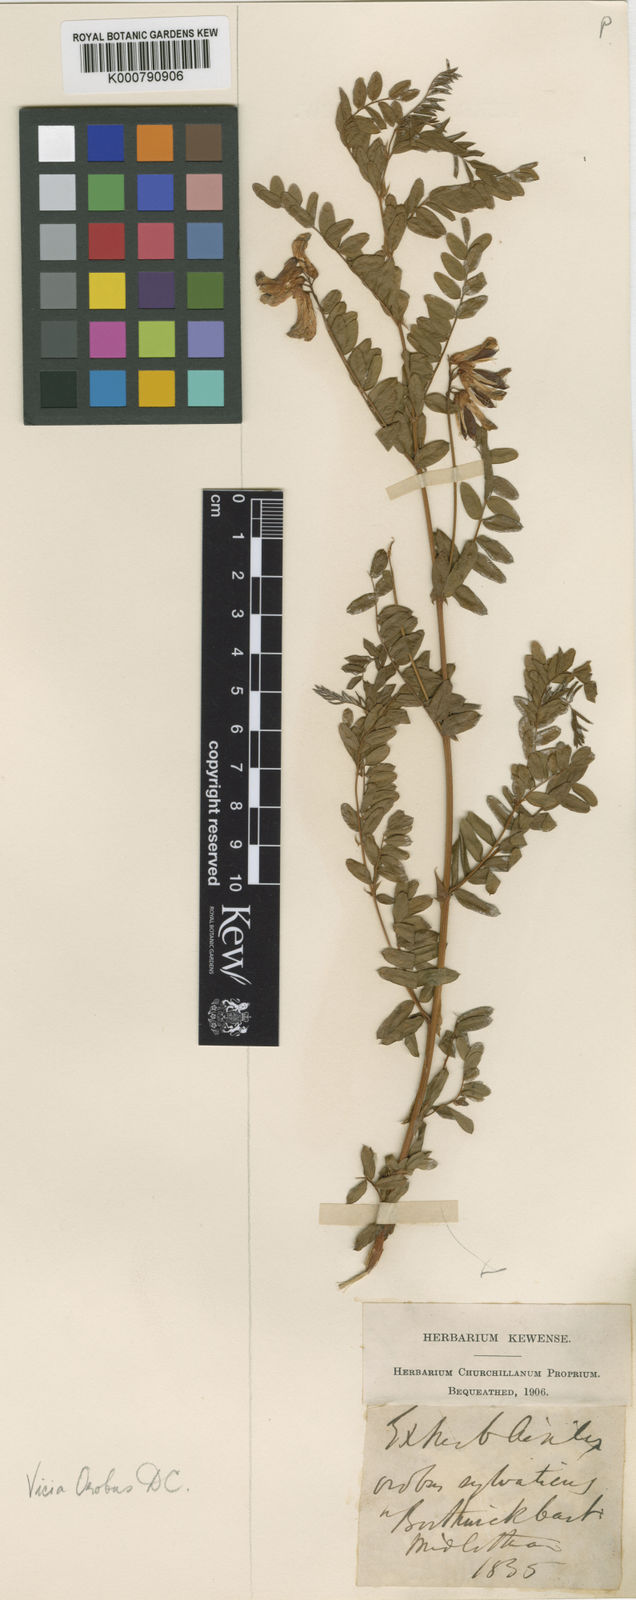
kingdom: Plantae
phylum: Tracheophyta
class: Magnoliopsida
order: Fabales
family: Fabaceae
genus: Vicia
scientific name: Vicia orobus
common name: Wood bitter-vetch
